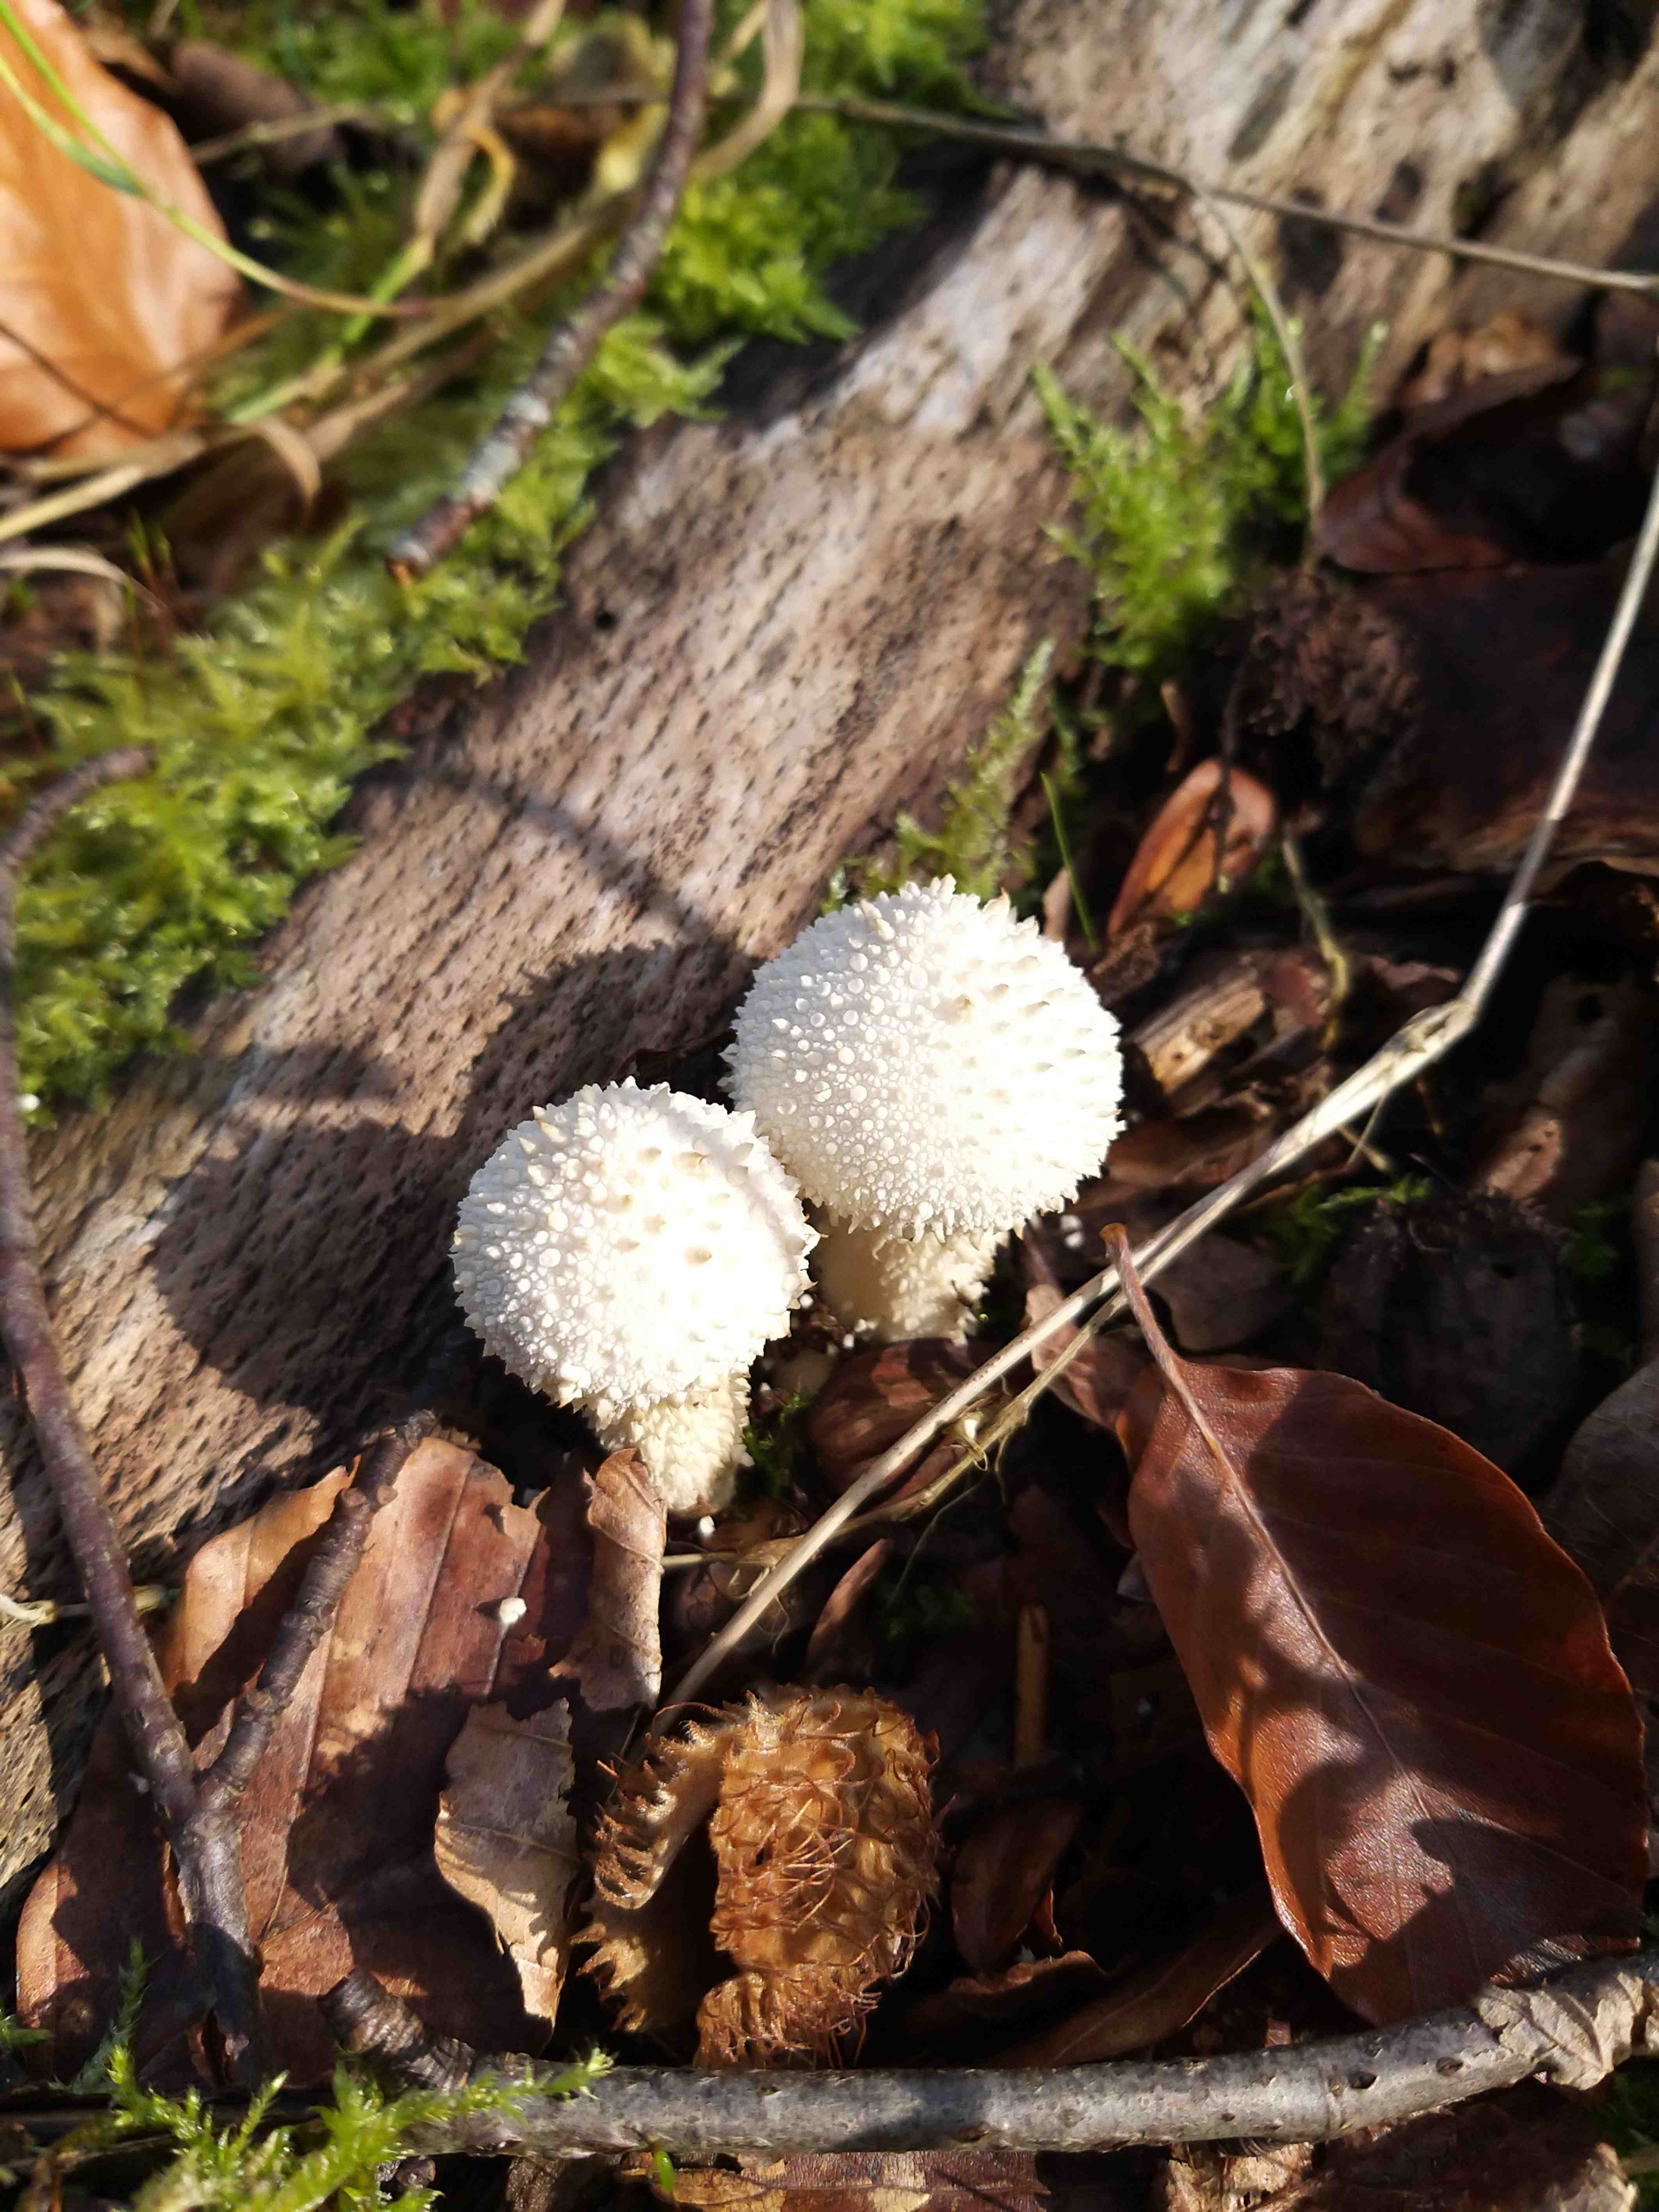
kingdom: Fungi
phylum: Basidiomycota
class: Agaricomycetes
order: Agaricales
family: Lycoperdaceae
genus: Lycoperdon
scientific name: Lycoperdon perlatum
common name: krystal-støvbold
